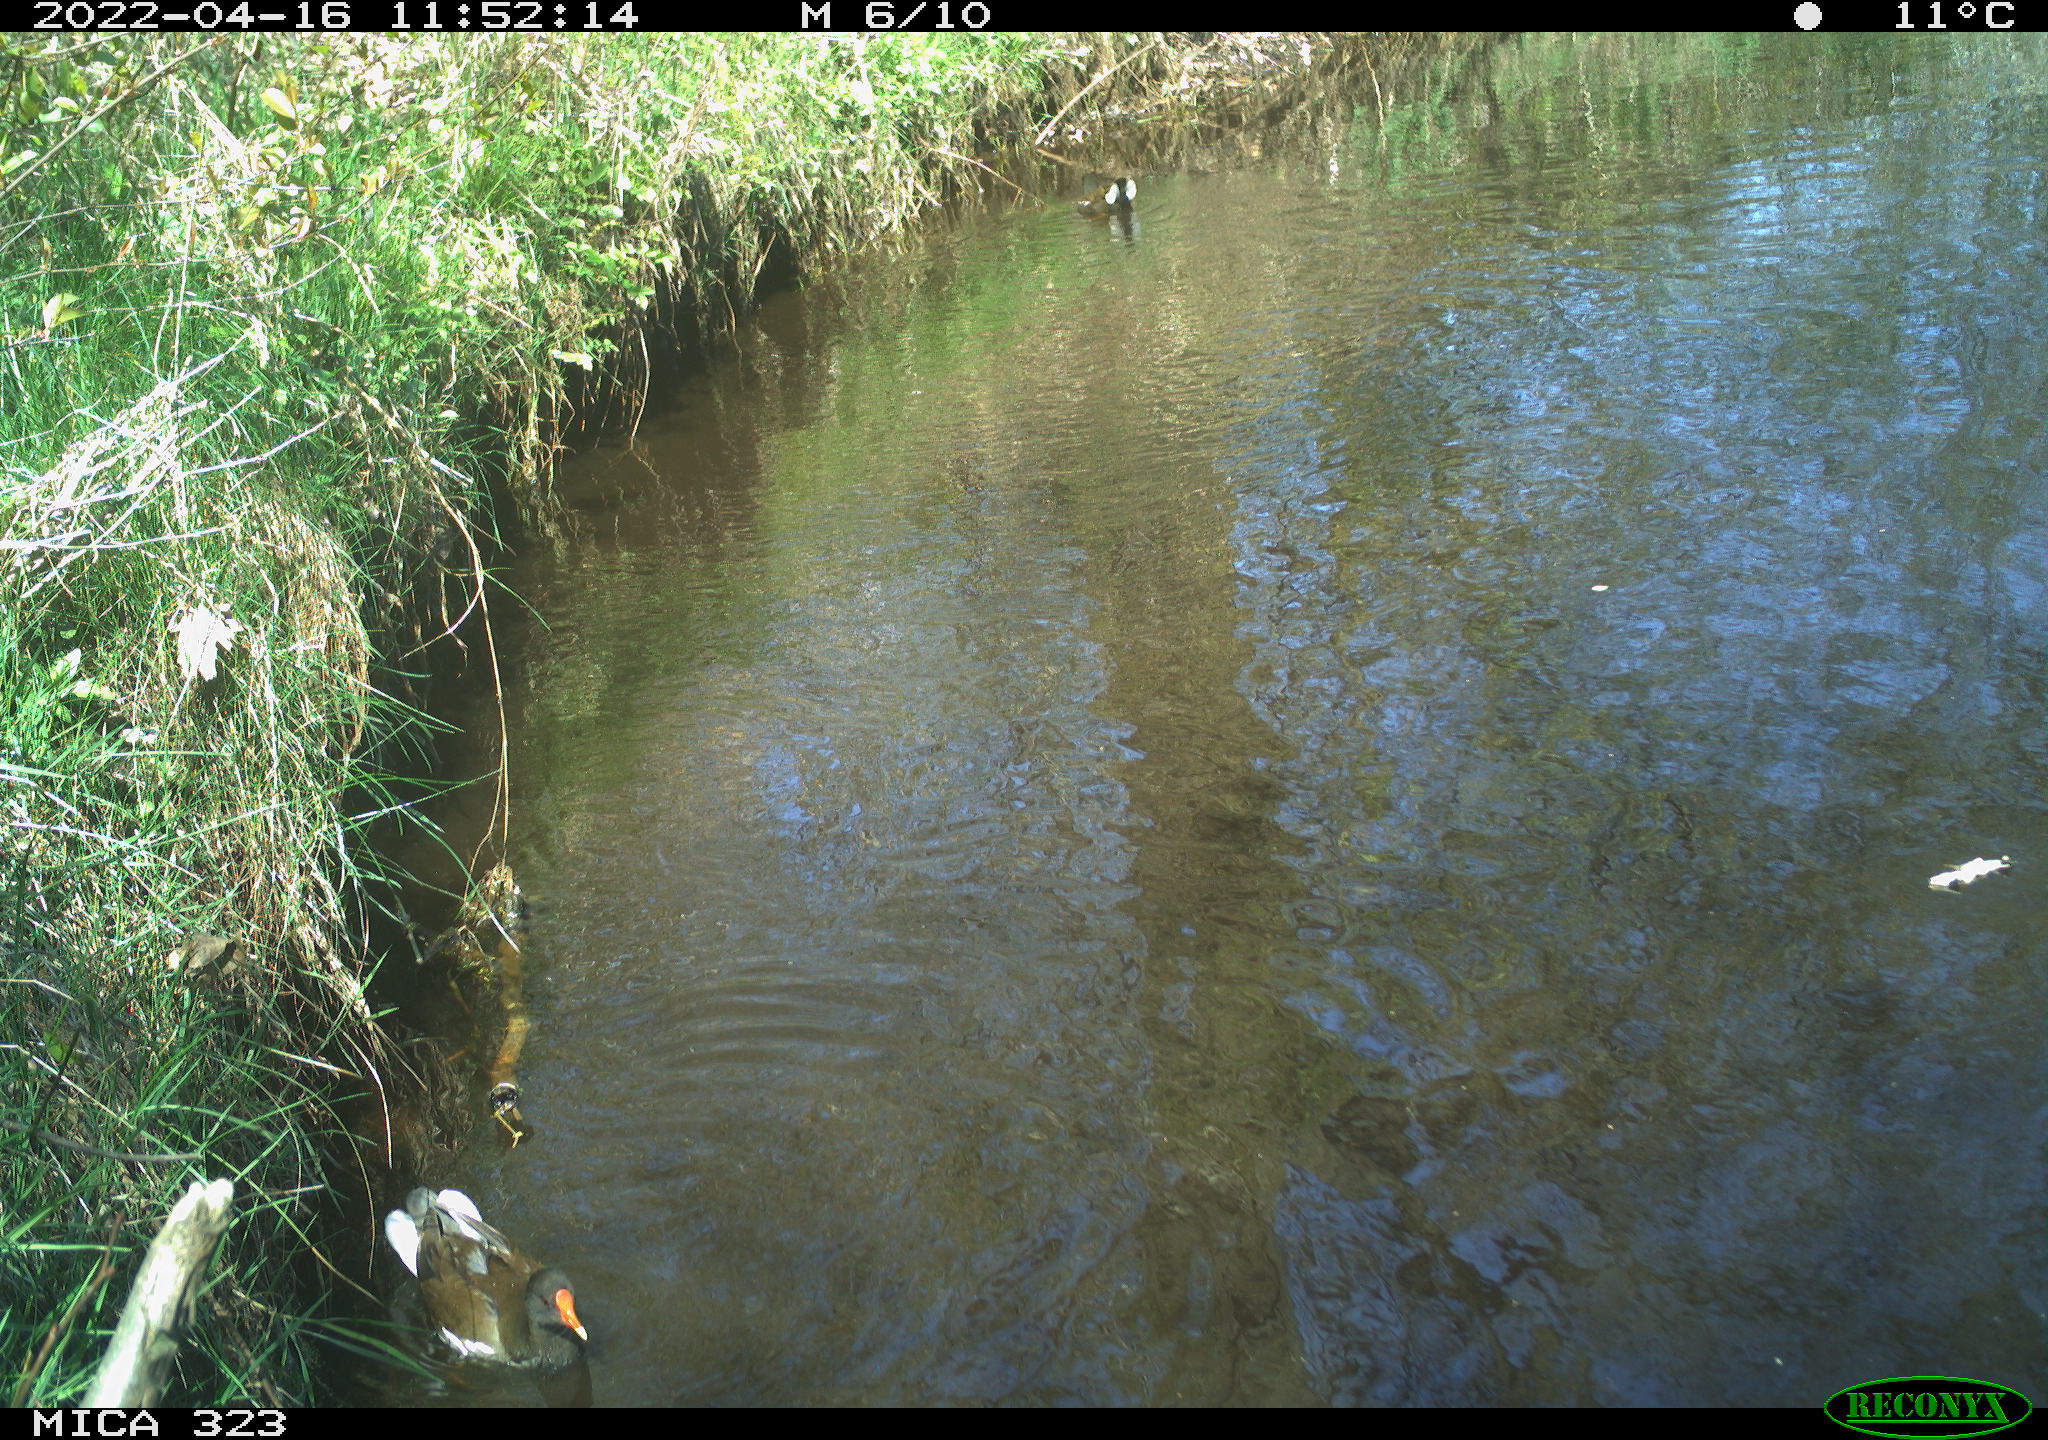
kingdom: Animalia
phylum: Chordata
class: Aves
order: Gruiformes
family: Rallidae
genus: Gallinula
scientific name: Gallinula chloropus
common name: Common moorhen
